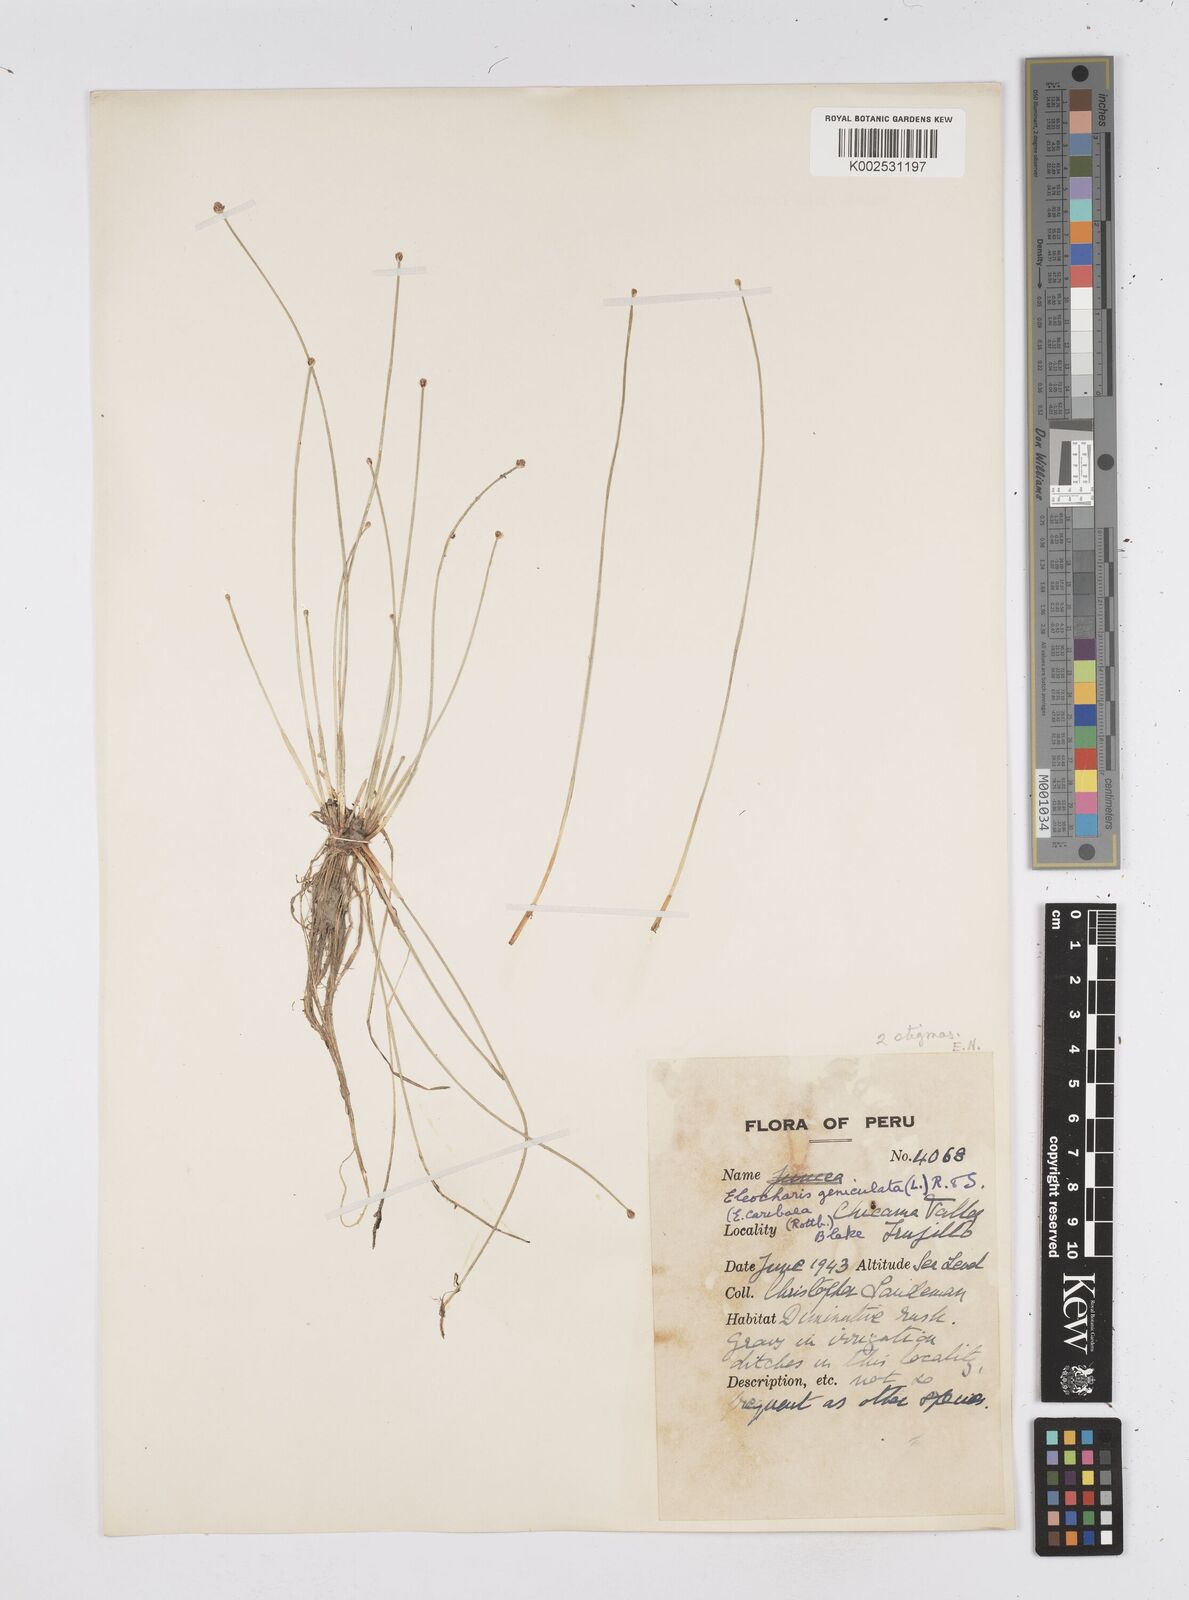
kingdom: Plantae
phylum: Tracheophyta
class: Liliopsida
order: Poales
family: Cyperaceae
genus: Eleocharis
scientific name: Eleocharis geniculata
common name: Canada spikesedge
